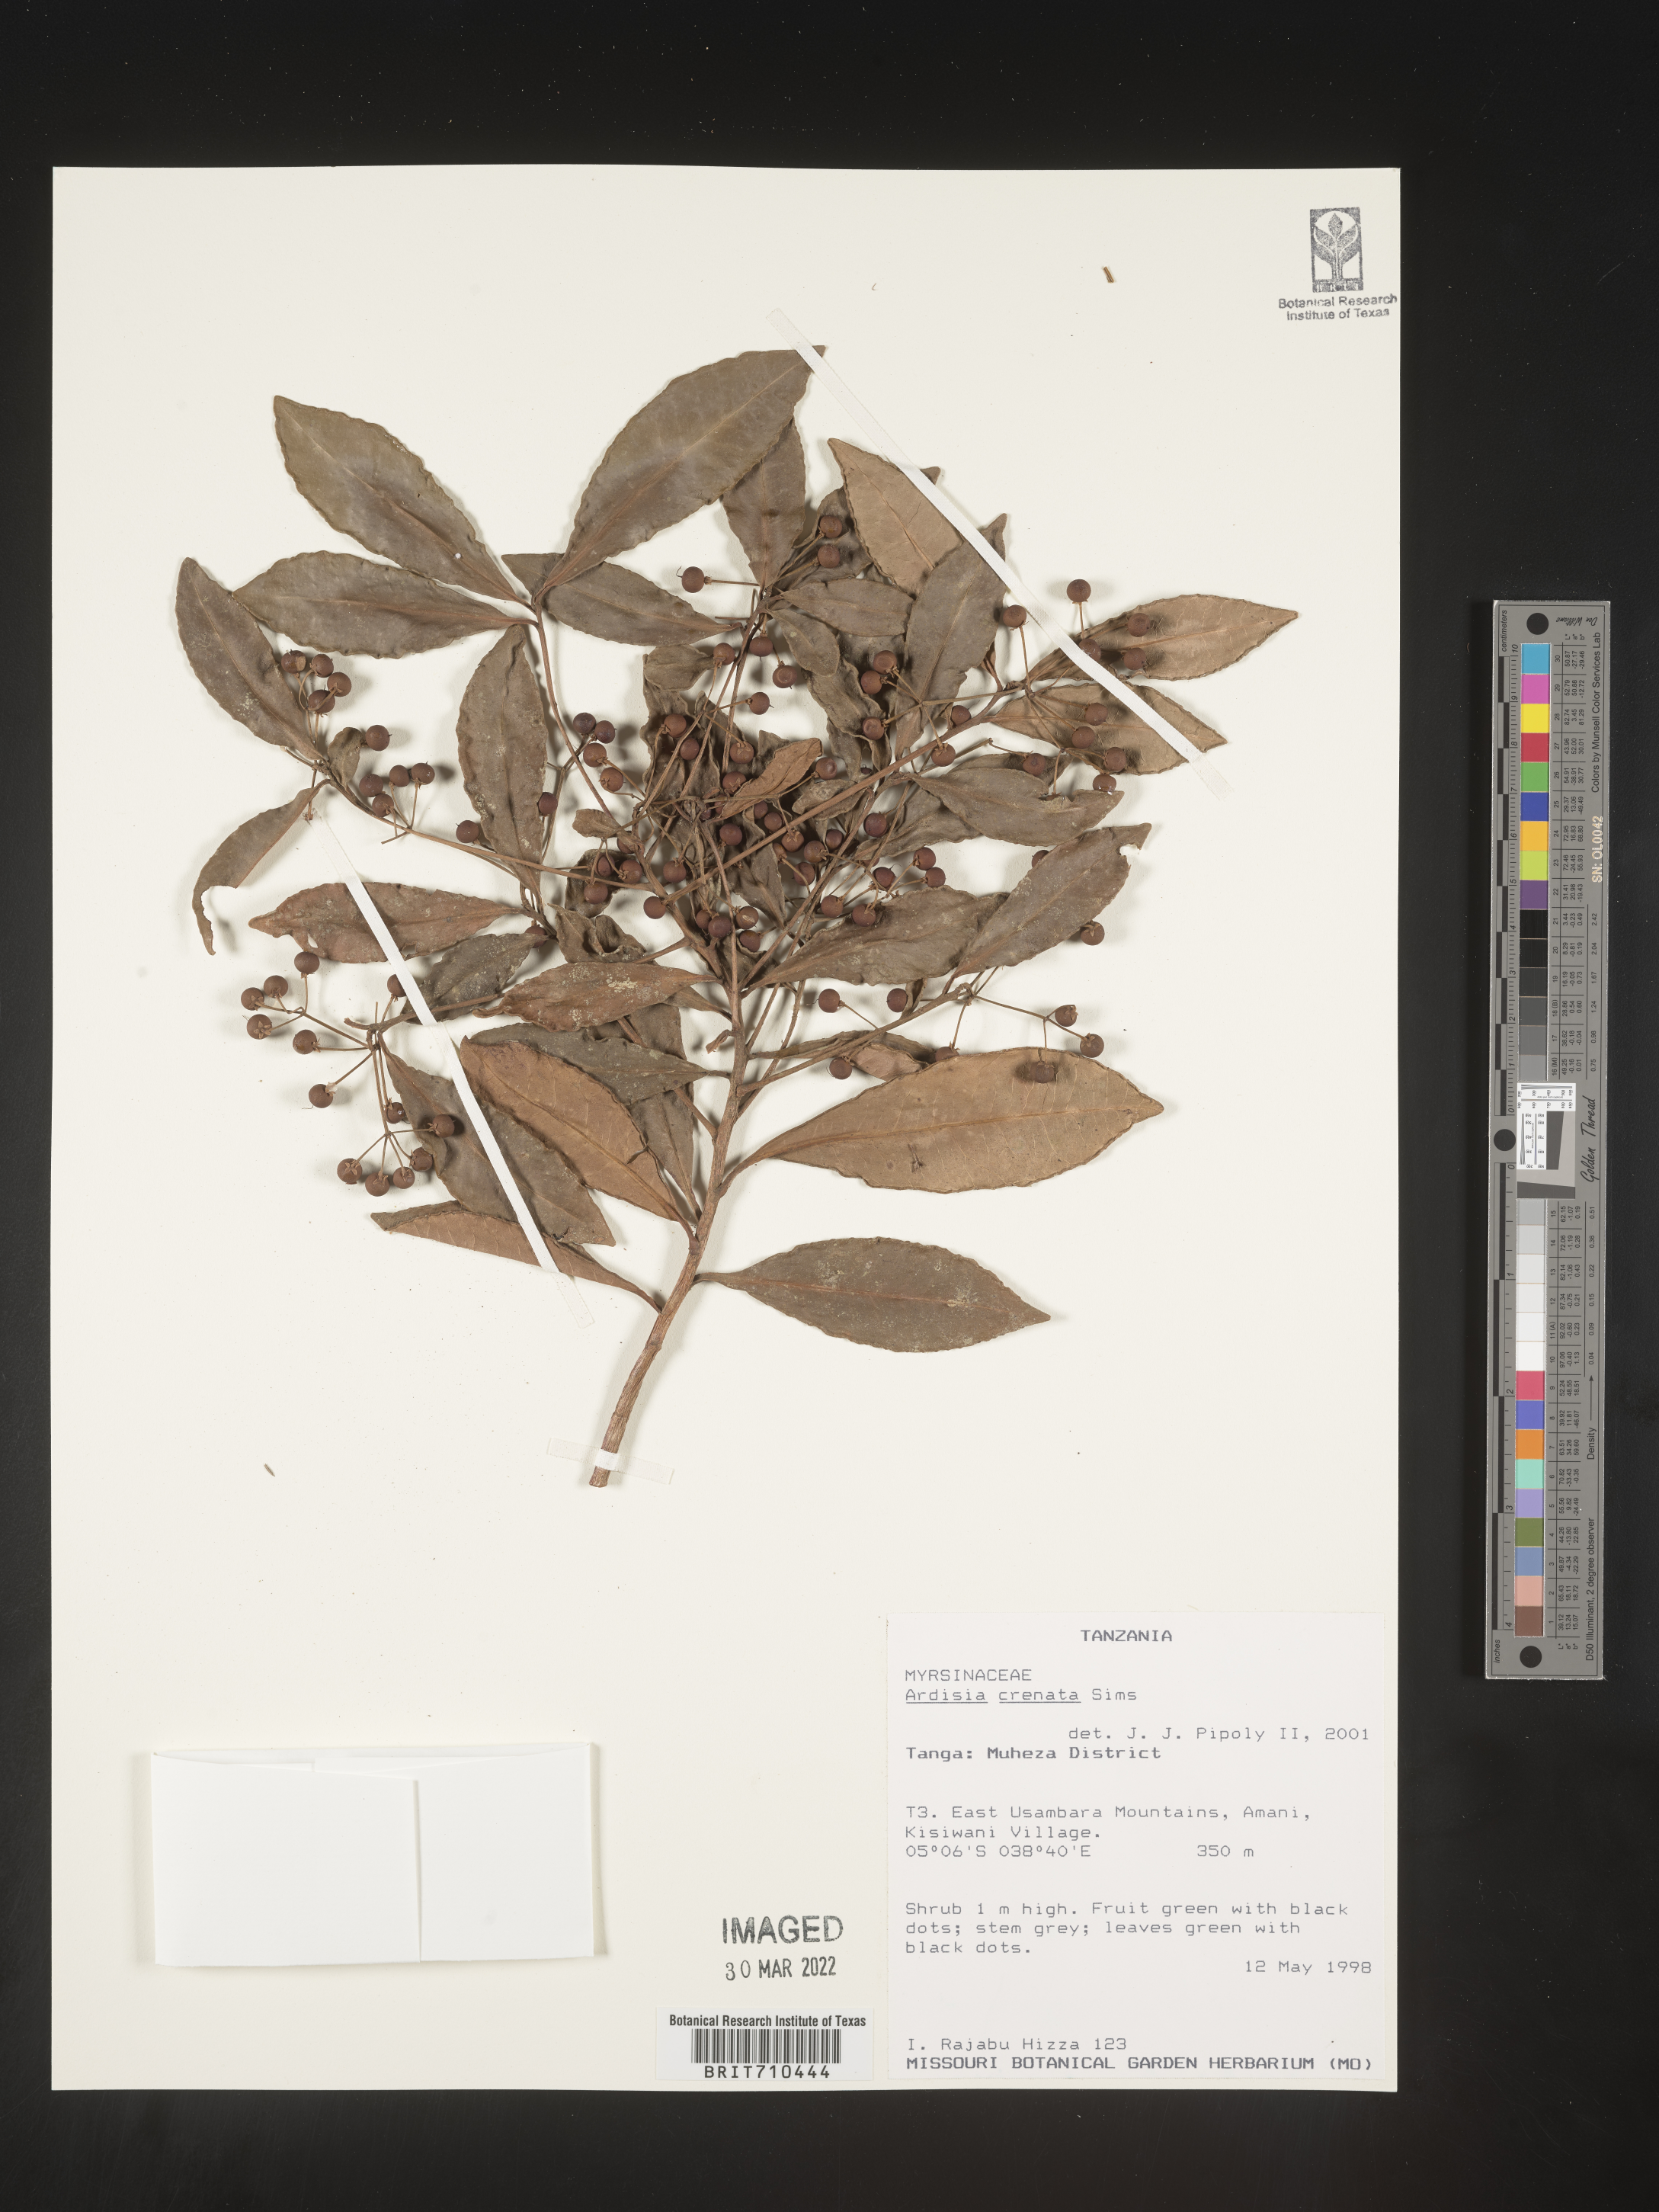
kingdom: Plantae
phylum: Tracheophyta
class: Magnoliopsida
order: Ericales
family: Primulaceae
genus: Ardisia
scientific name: Ardisia
